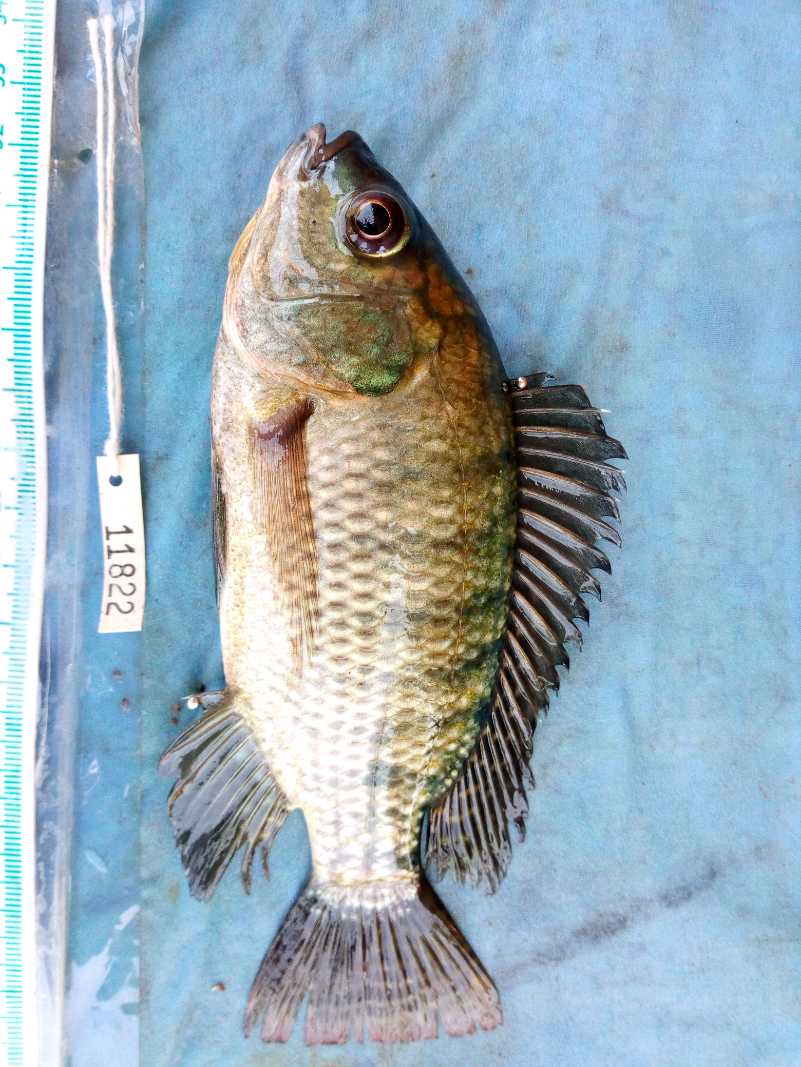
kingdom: Animalia
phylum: Chordata
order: Perciformes
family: Cichlidae
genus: Oreochromis
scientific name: Oreochromis niloticus
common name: Nile tilapia
